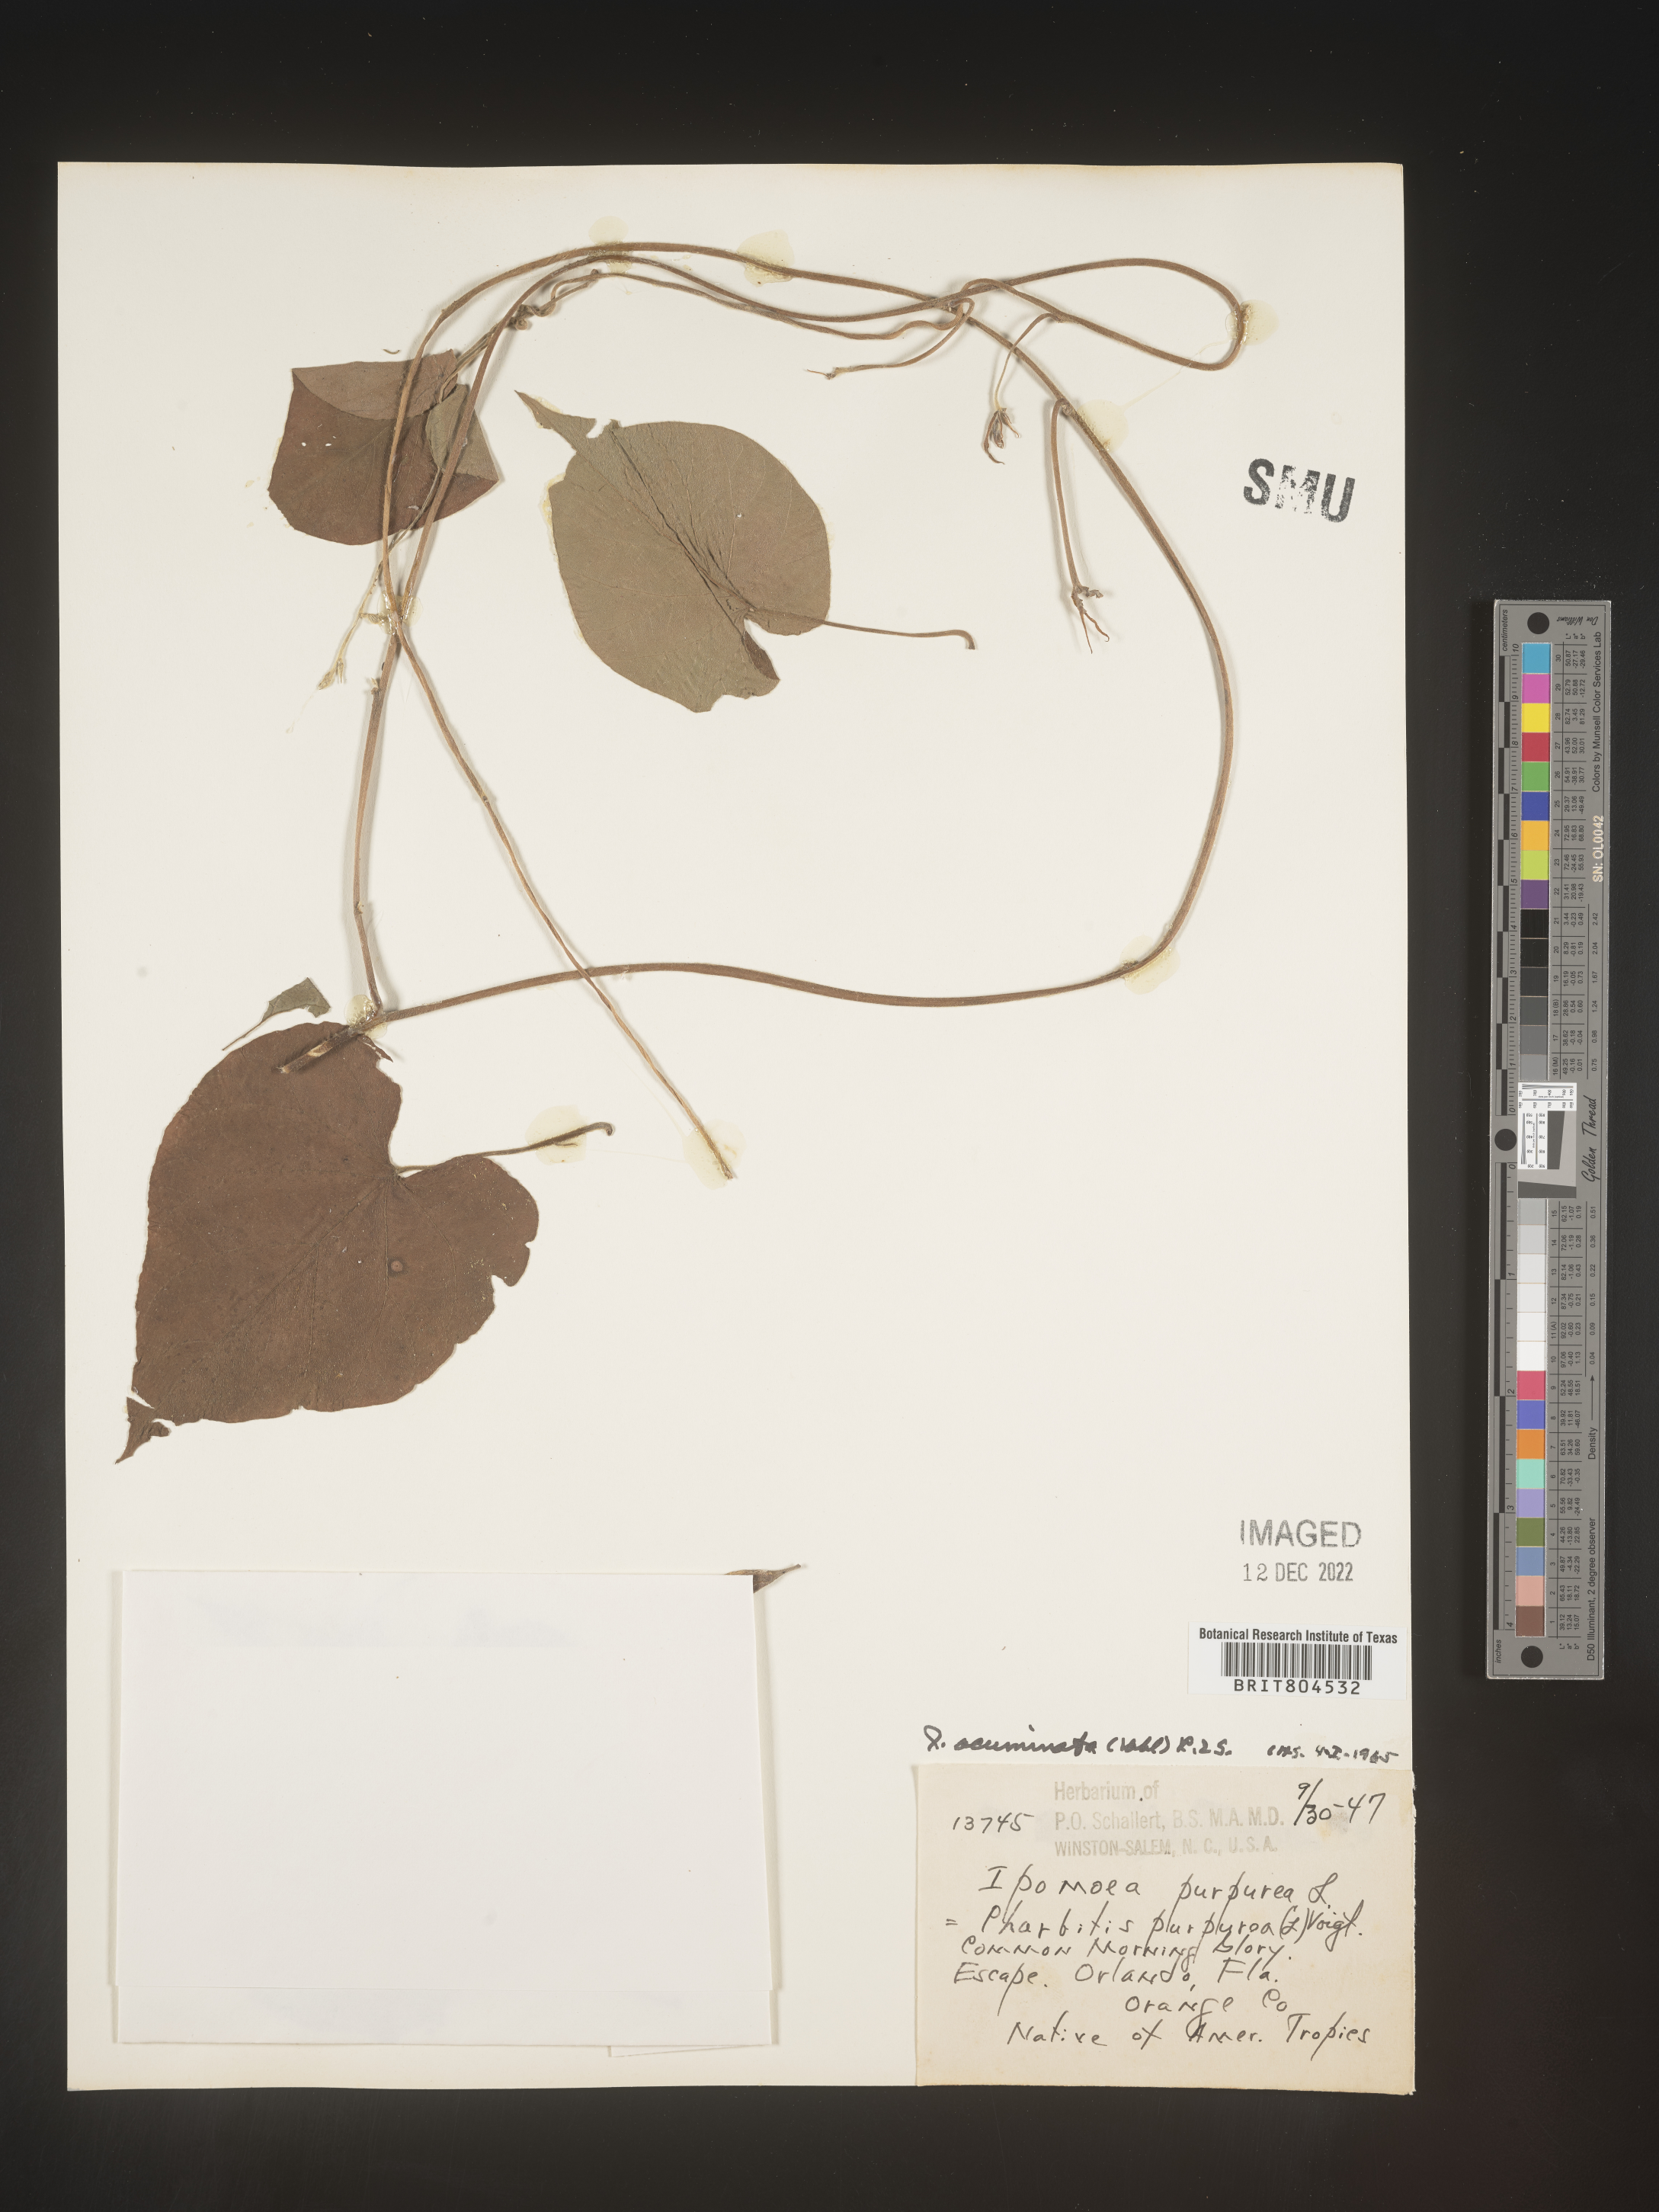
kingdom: Plantae
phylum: Tracheophyta
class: Magnoliopsida
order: Solanales
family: Convolvulaceae
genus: Ipomoea
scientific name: Ipomoea coccinea
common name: Red morning-glory
